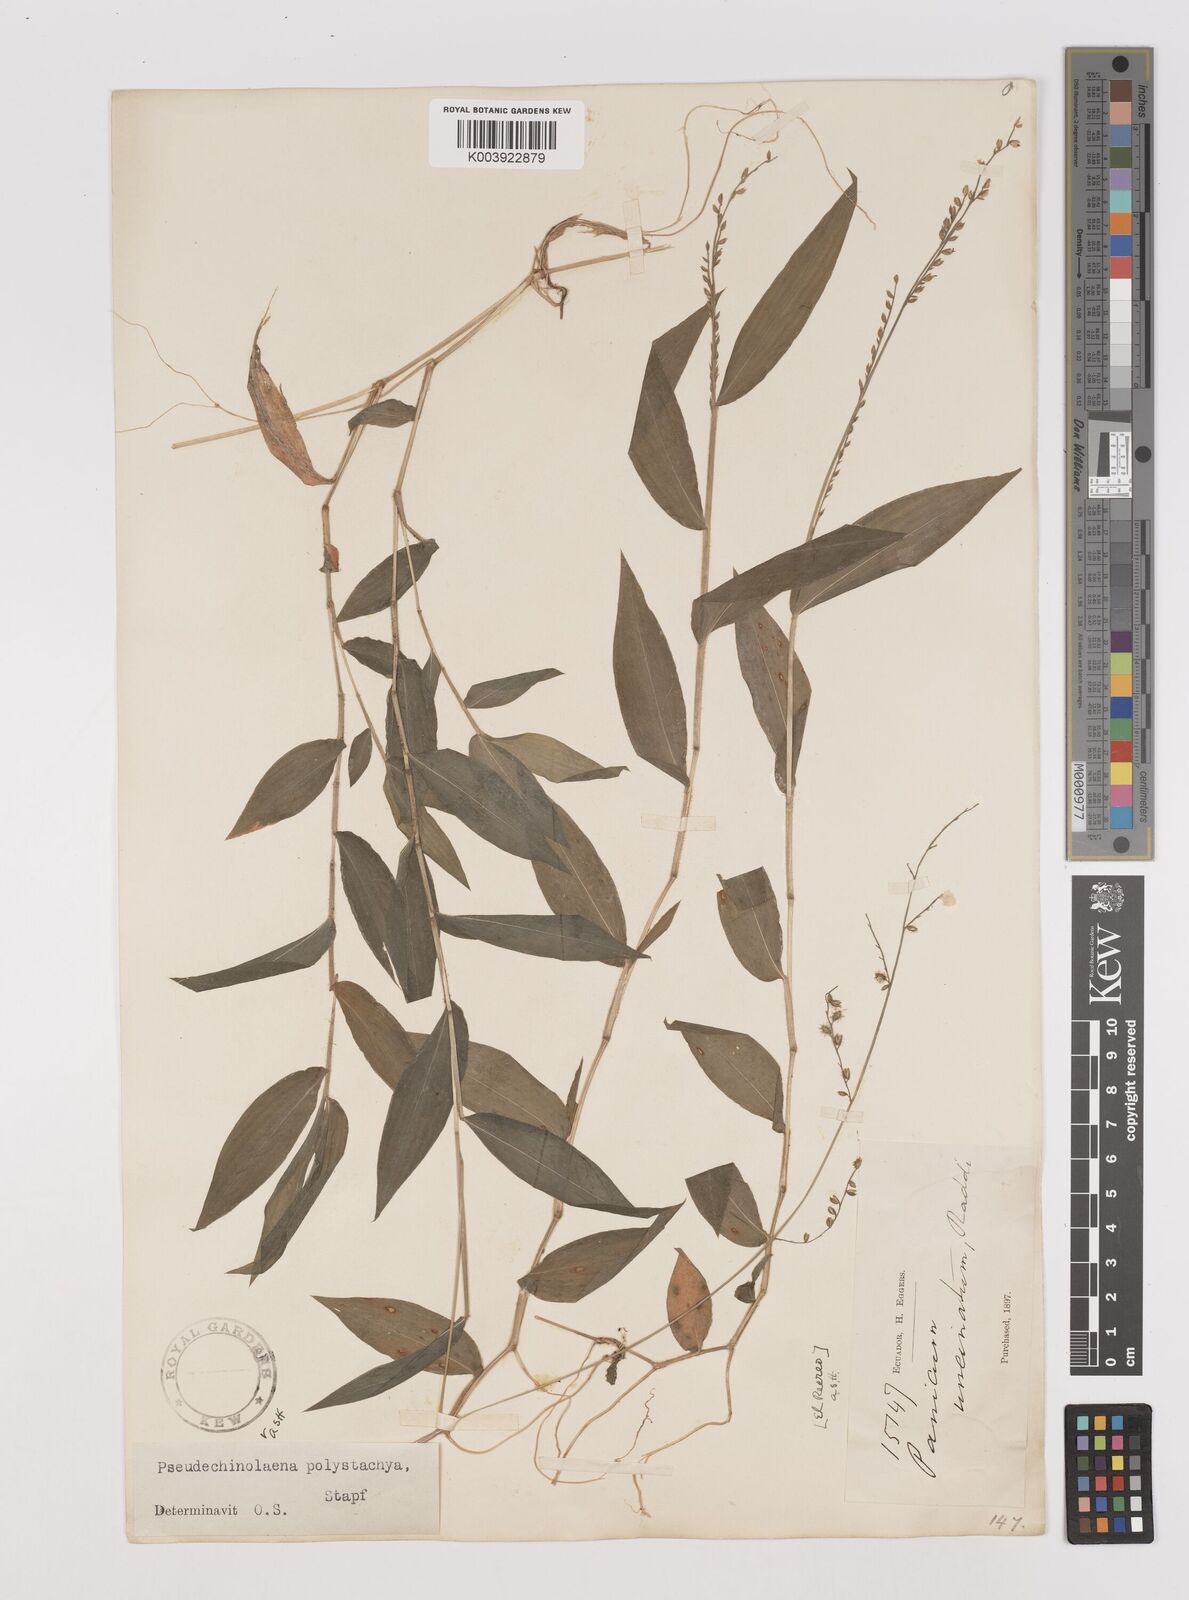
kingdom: Plantae
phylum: Tracheophyta
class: Liliopsida
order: Poales
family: Poaceae
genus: Pseudechinolaena
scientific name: Pseudechinolaena polystachya
